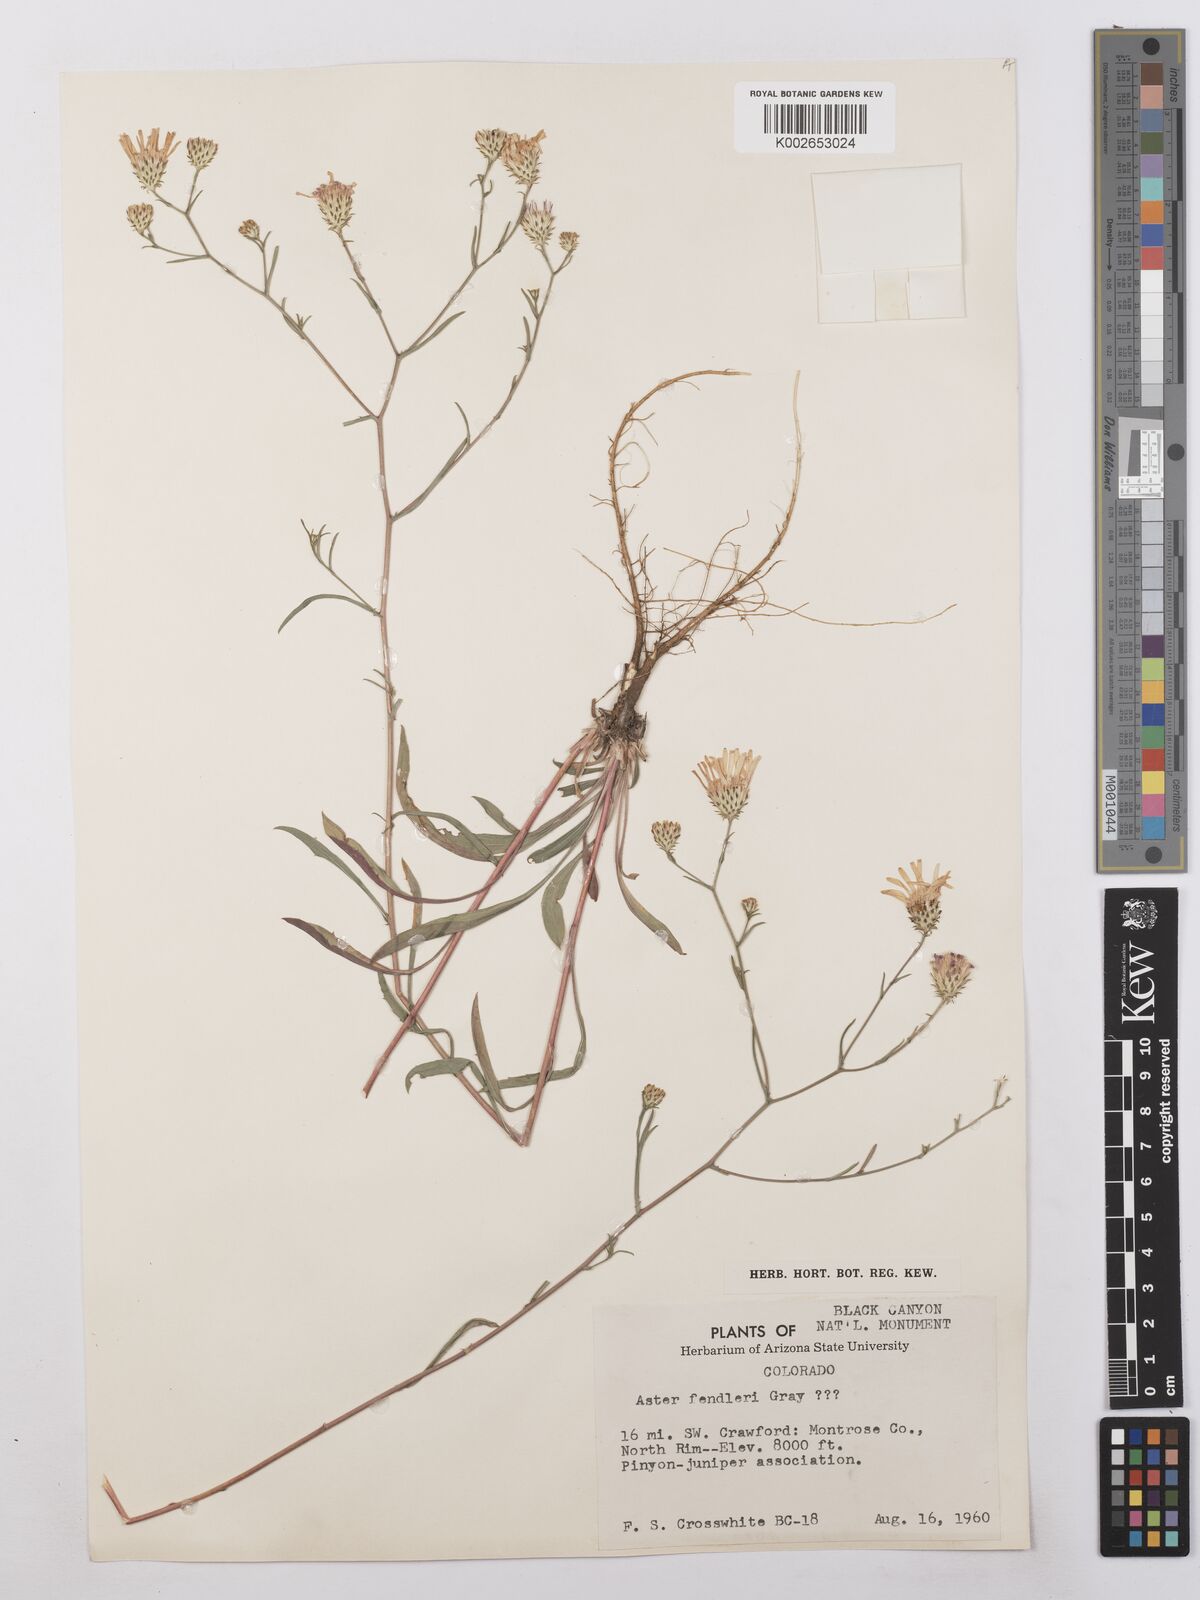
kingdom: Plantae
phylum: Tracheophyta
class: Magnoliopsida
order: Asterales
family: Asteraceae
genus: Symphyotrichum
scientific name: Symphyotrichum fendleri
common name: Fendler's aster
